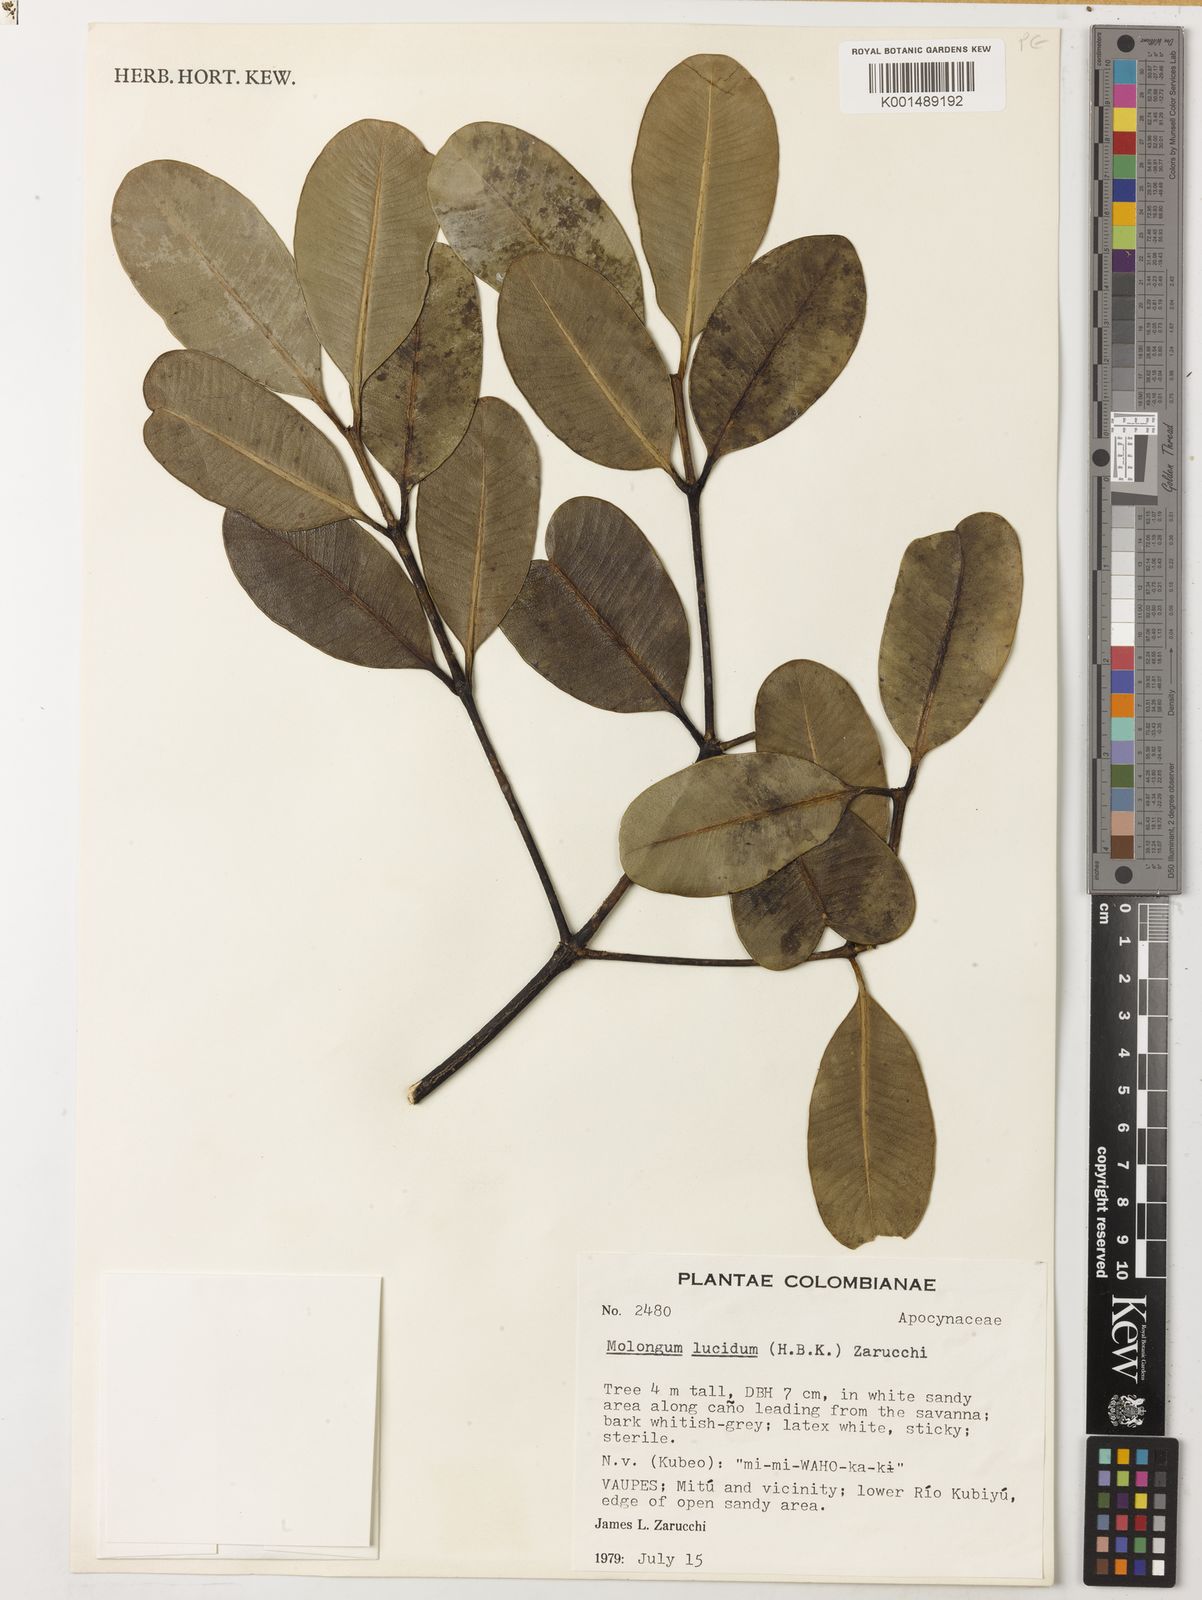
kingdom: Plantae
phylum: Tracheophyta
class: Magnoliopsida
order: Gentianales
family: Apocynaceae
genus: Molongum
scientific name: Molongum lucidum
